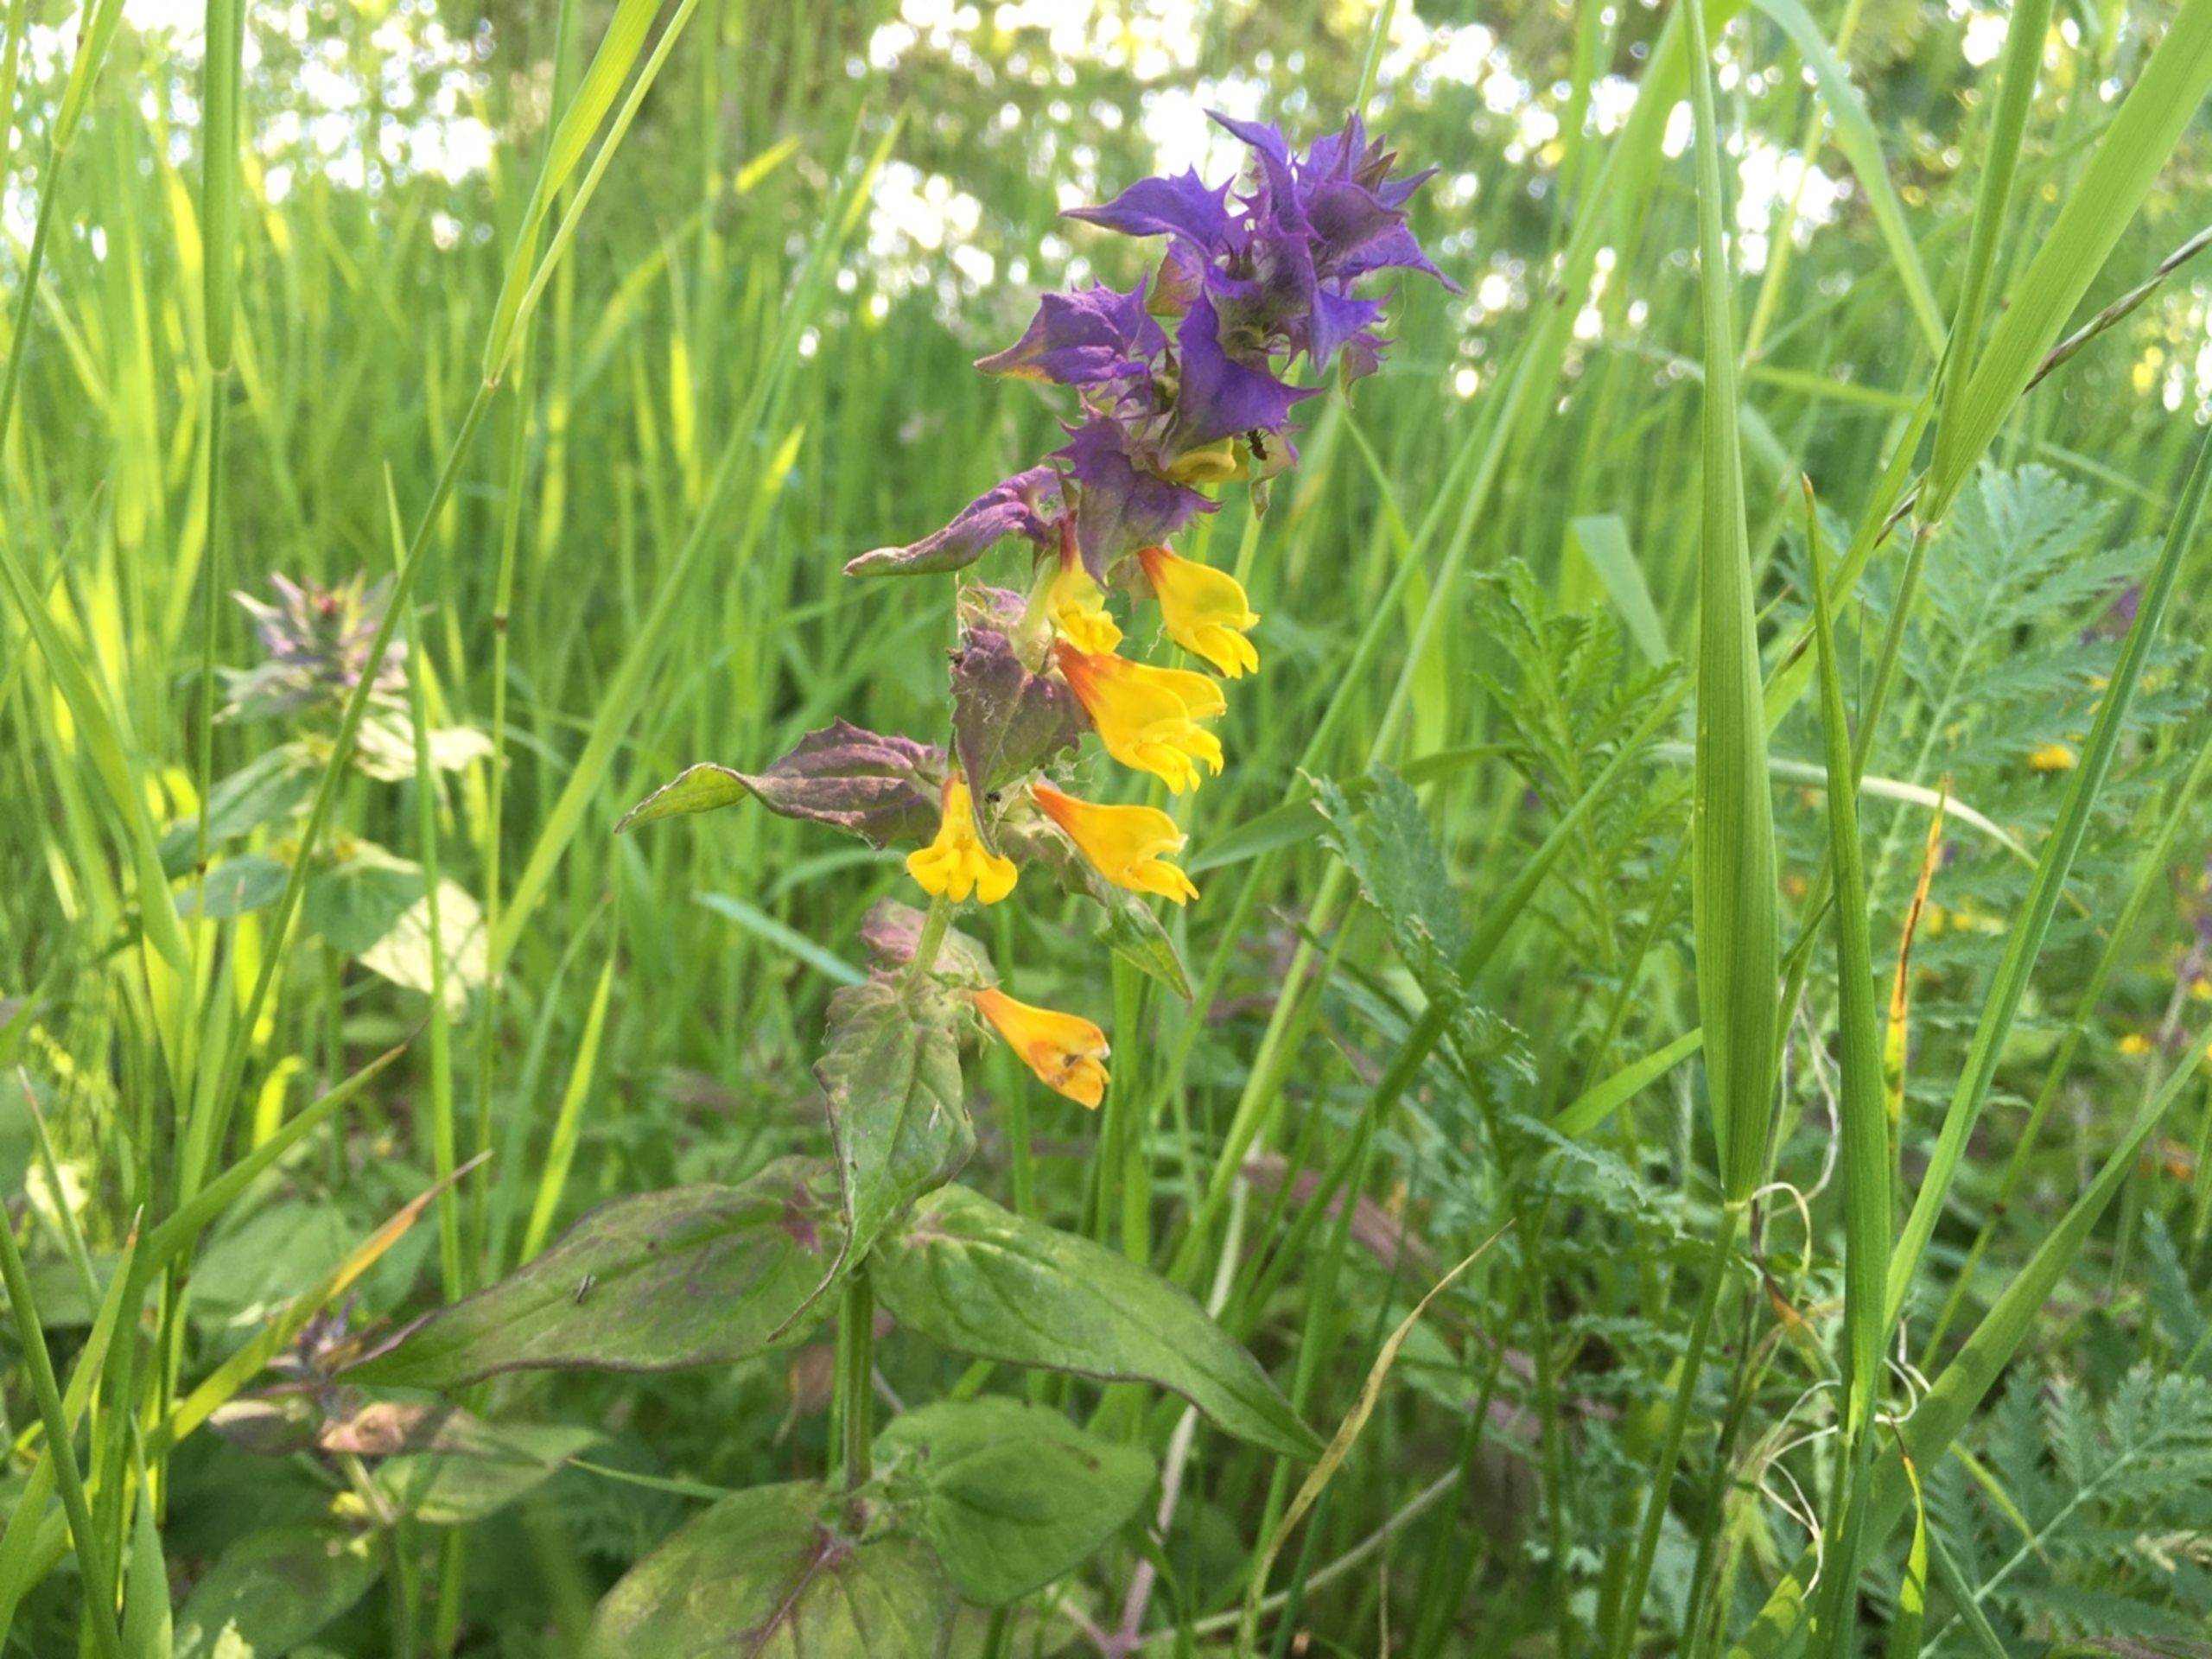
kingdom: Plantae
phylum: Tracheophyta
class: Magnoliopsida
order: Lamiales
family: Orobanchaceae
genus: Melampyrum
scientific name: Melampyrum nemorosum
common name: Blåtoppet kohvede
